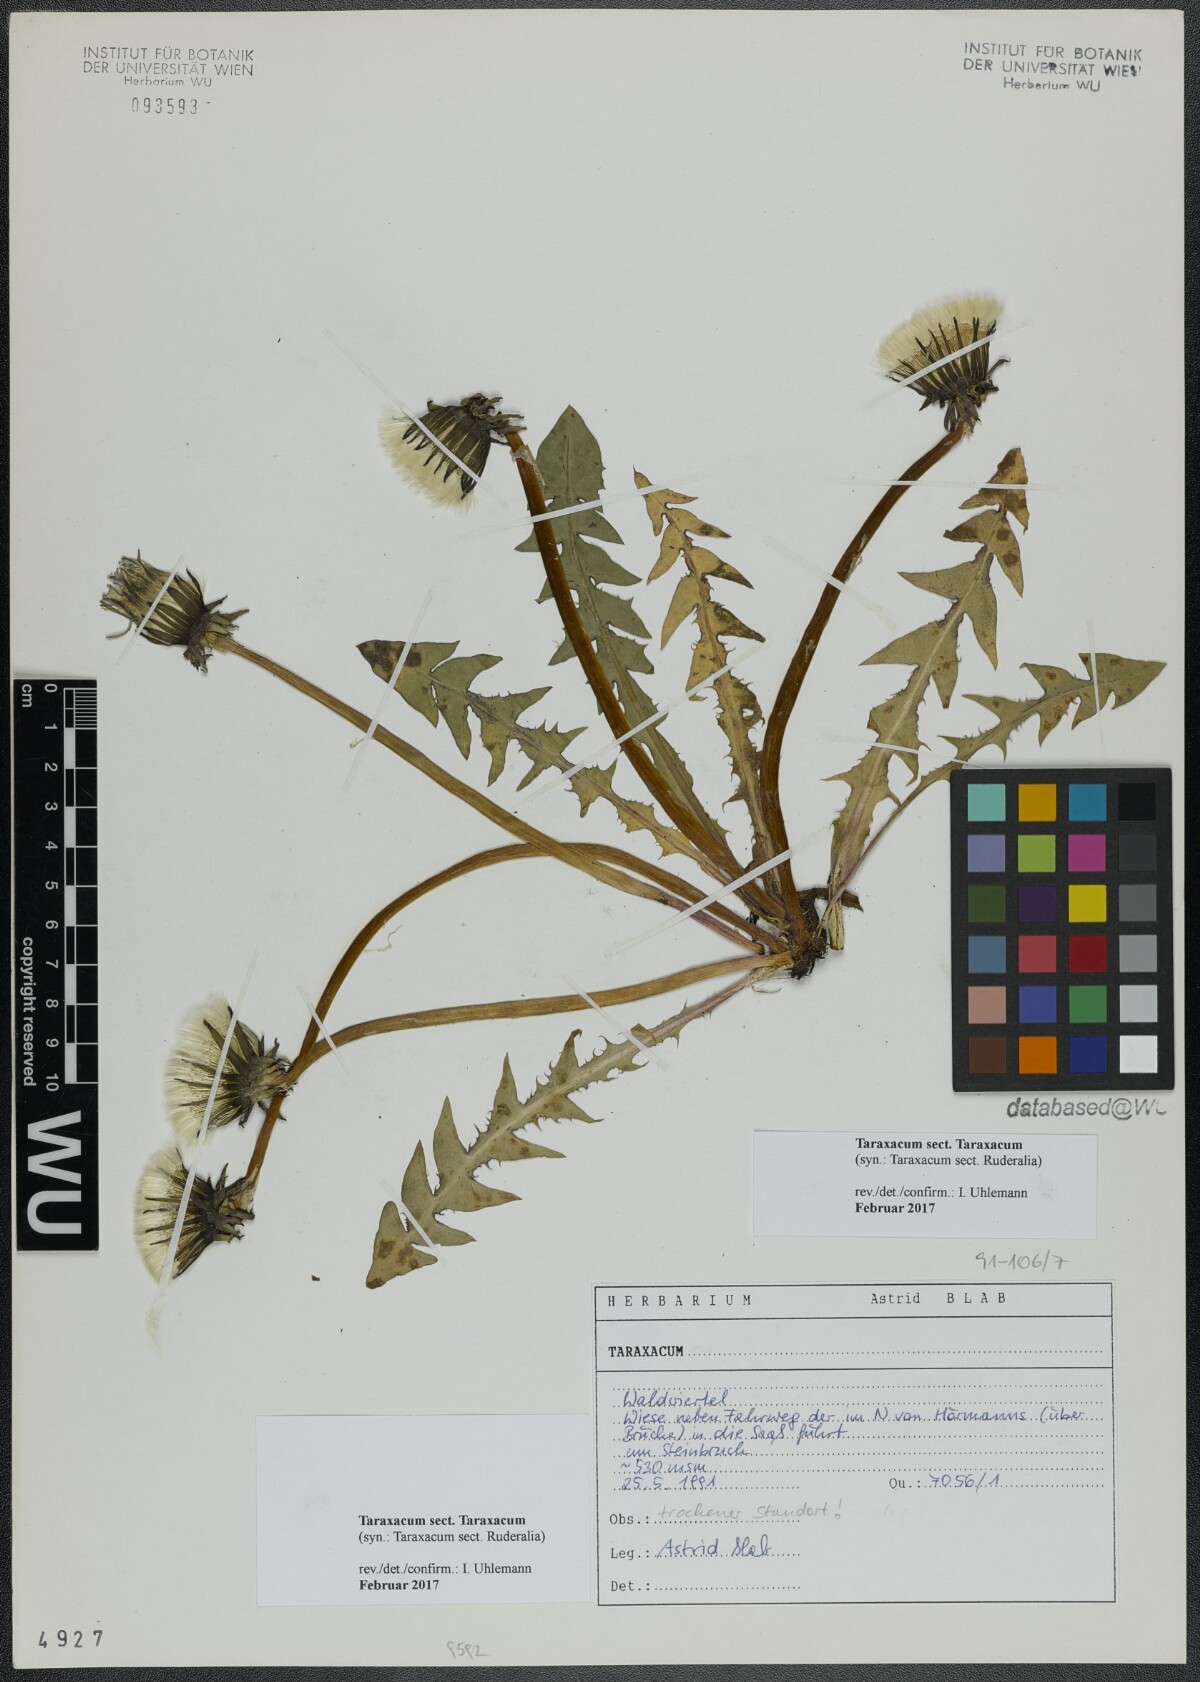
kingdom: Plantae
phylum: Tracheophyta
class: Magnoliopsida
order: Asterales
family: Asteraceae
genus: Taraxacum
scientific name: Taraxacum
